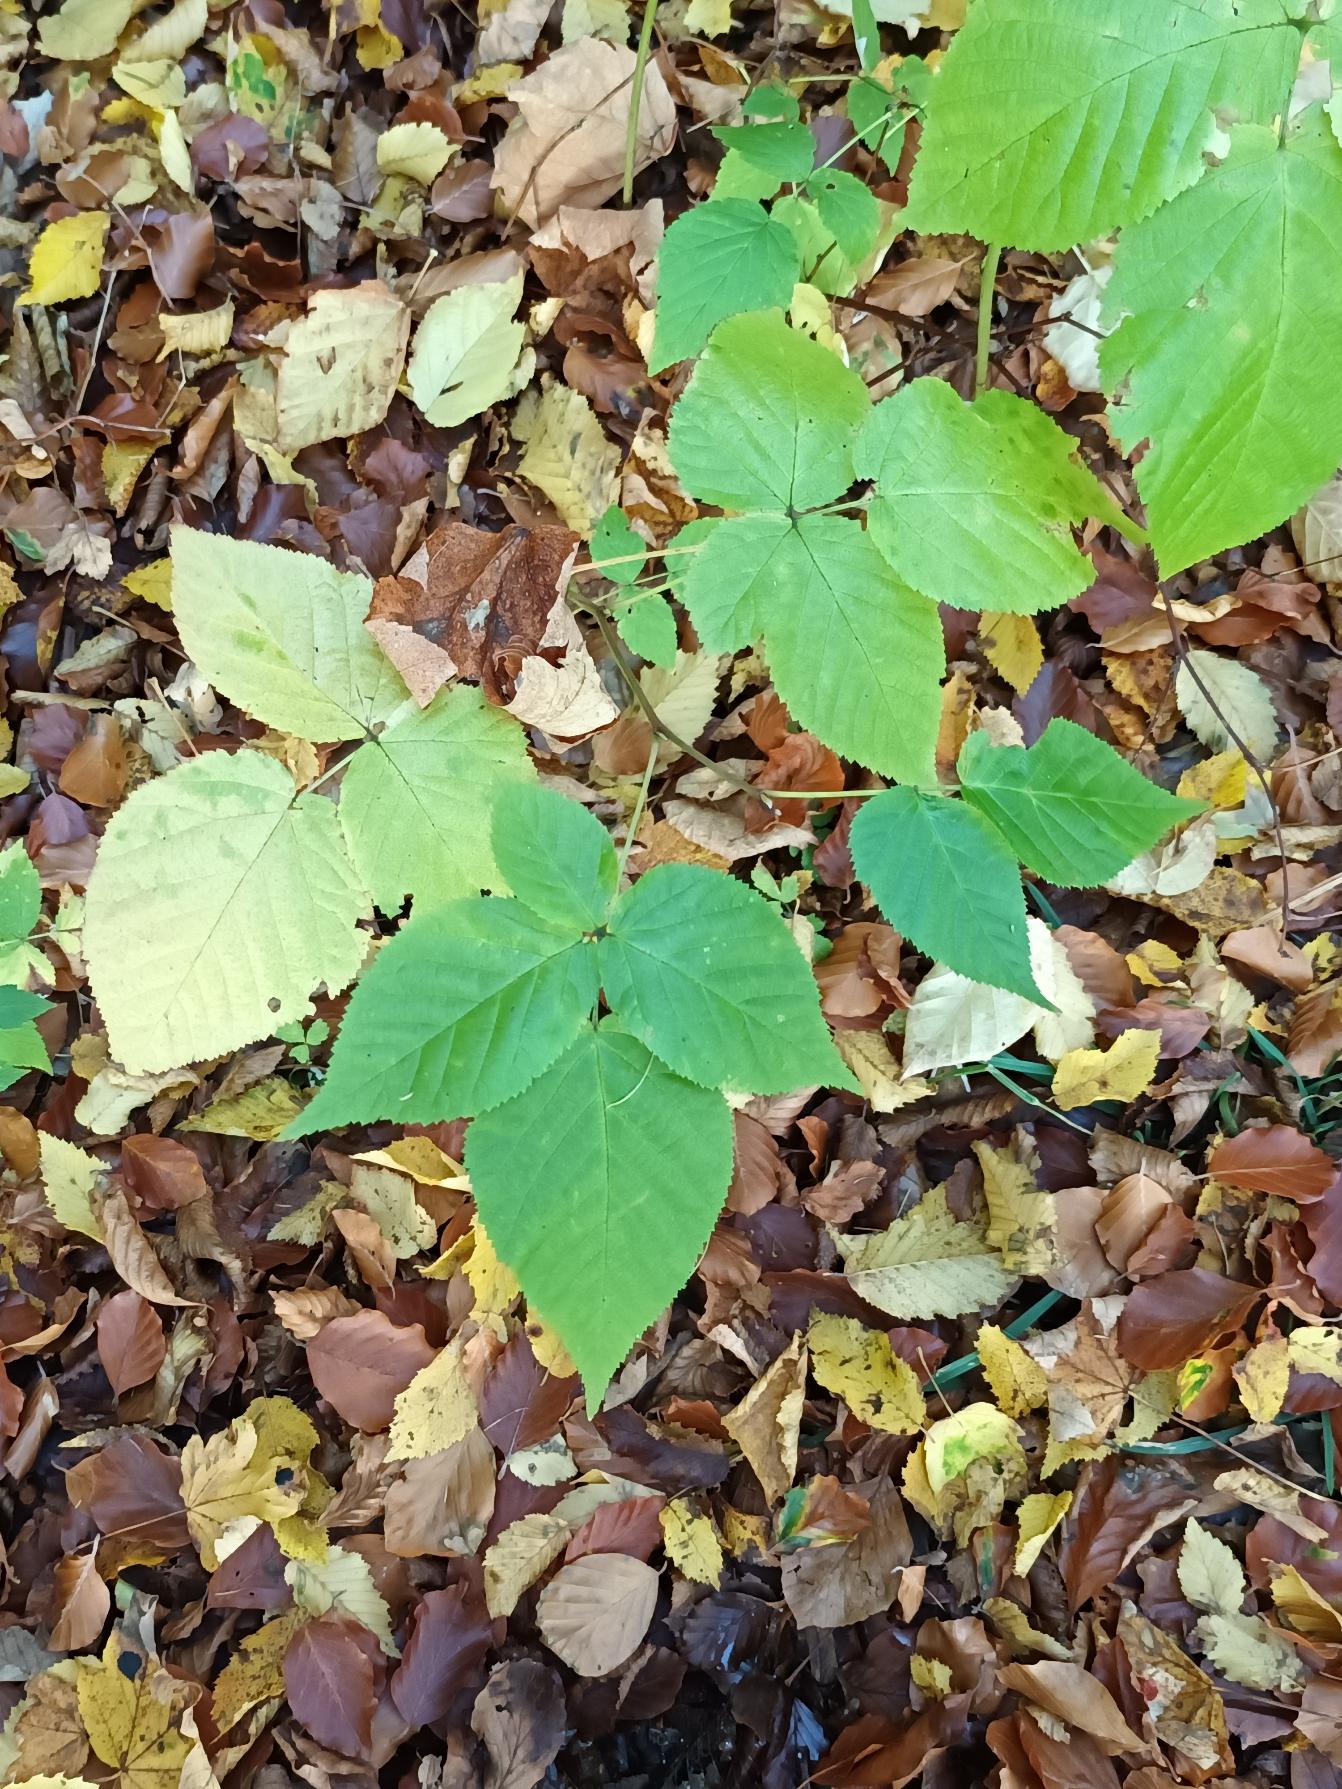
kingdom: Plantae
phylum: Tracheophyta
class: Magnoliopsida
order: Rosales
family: Rosaceae
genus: Rubus
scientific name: Rubus polonicus
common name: Skov-brombær
